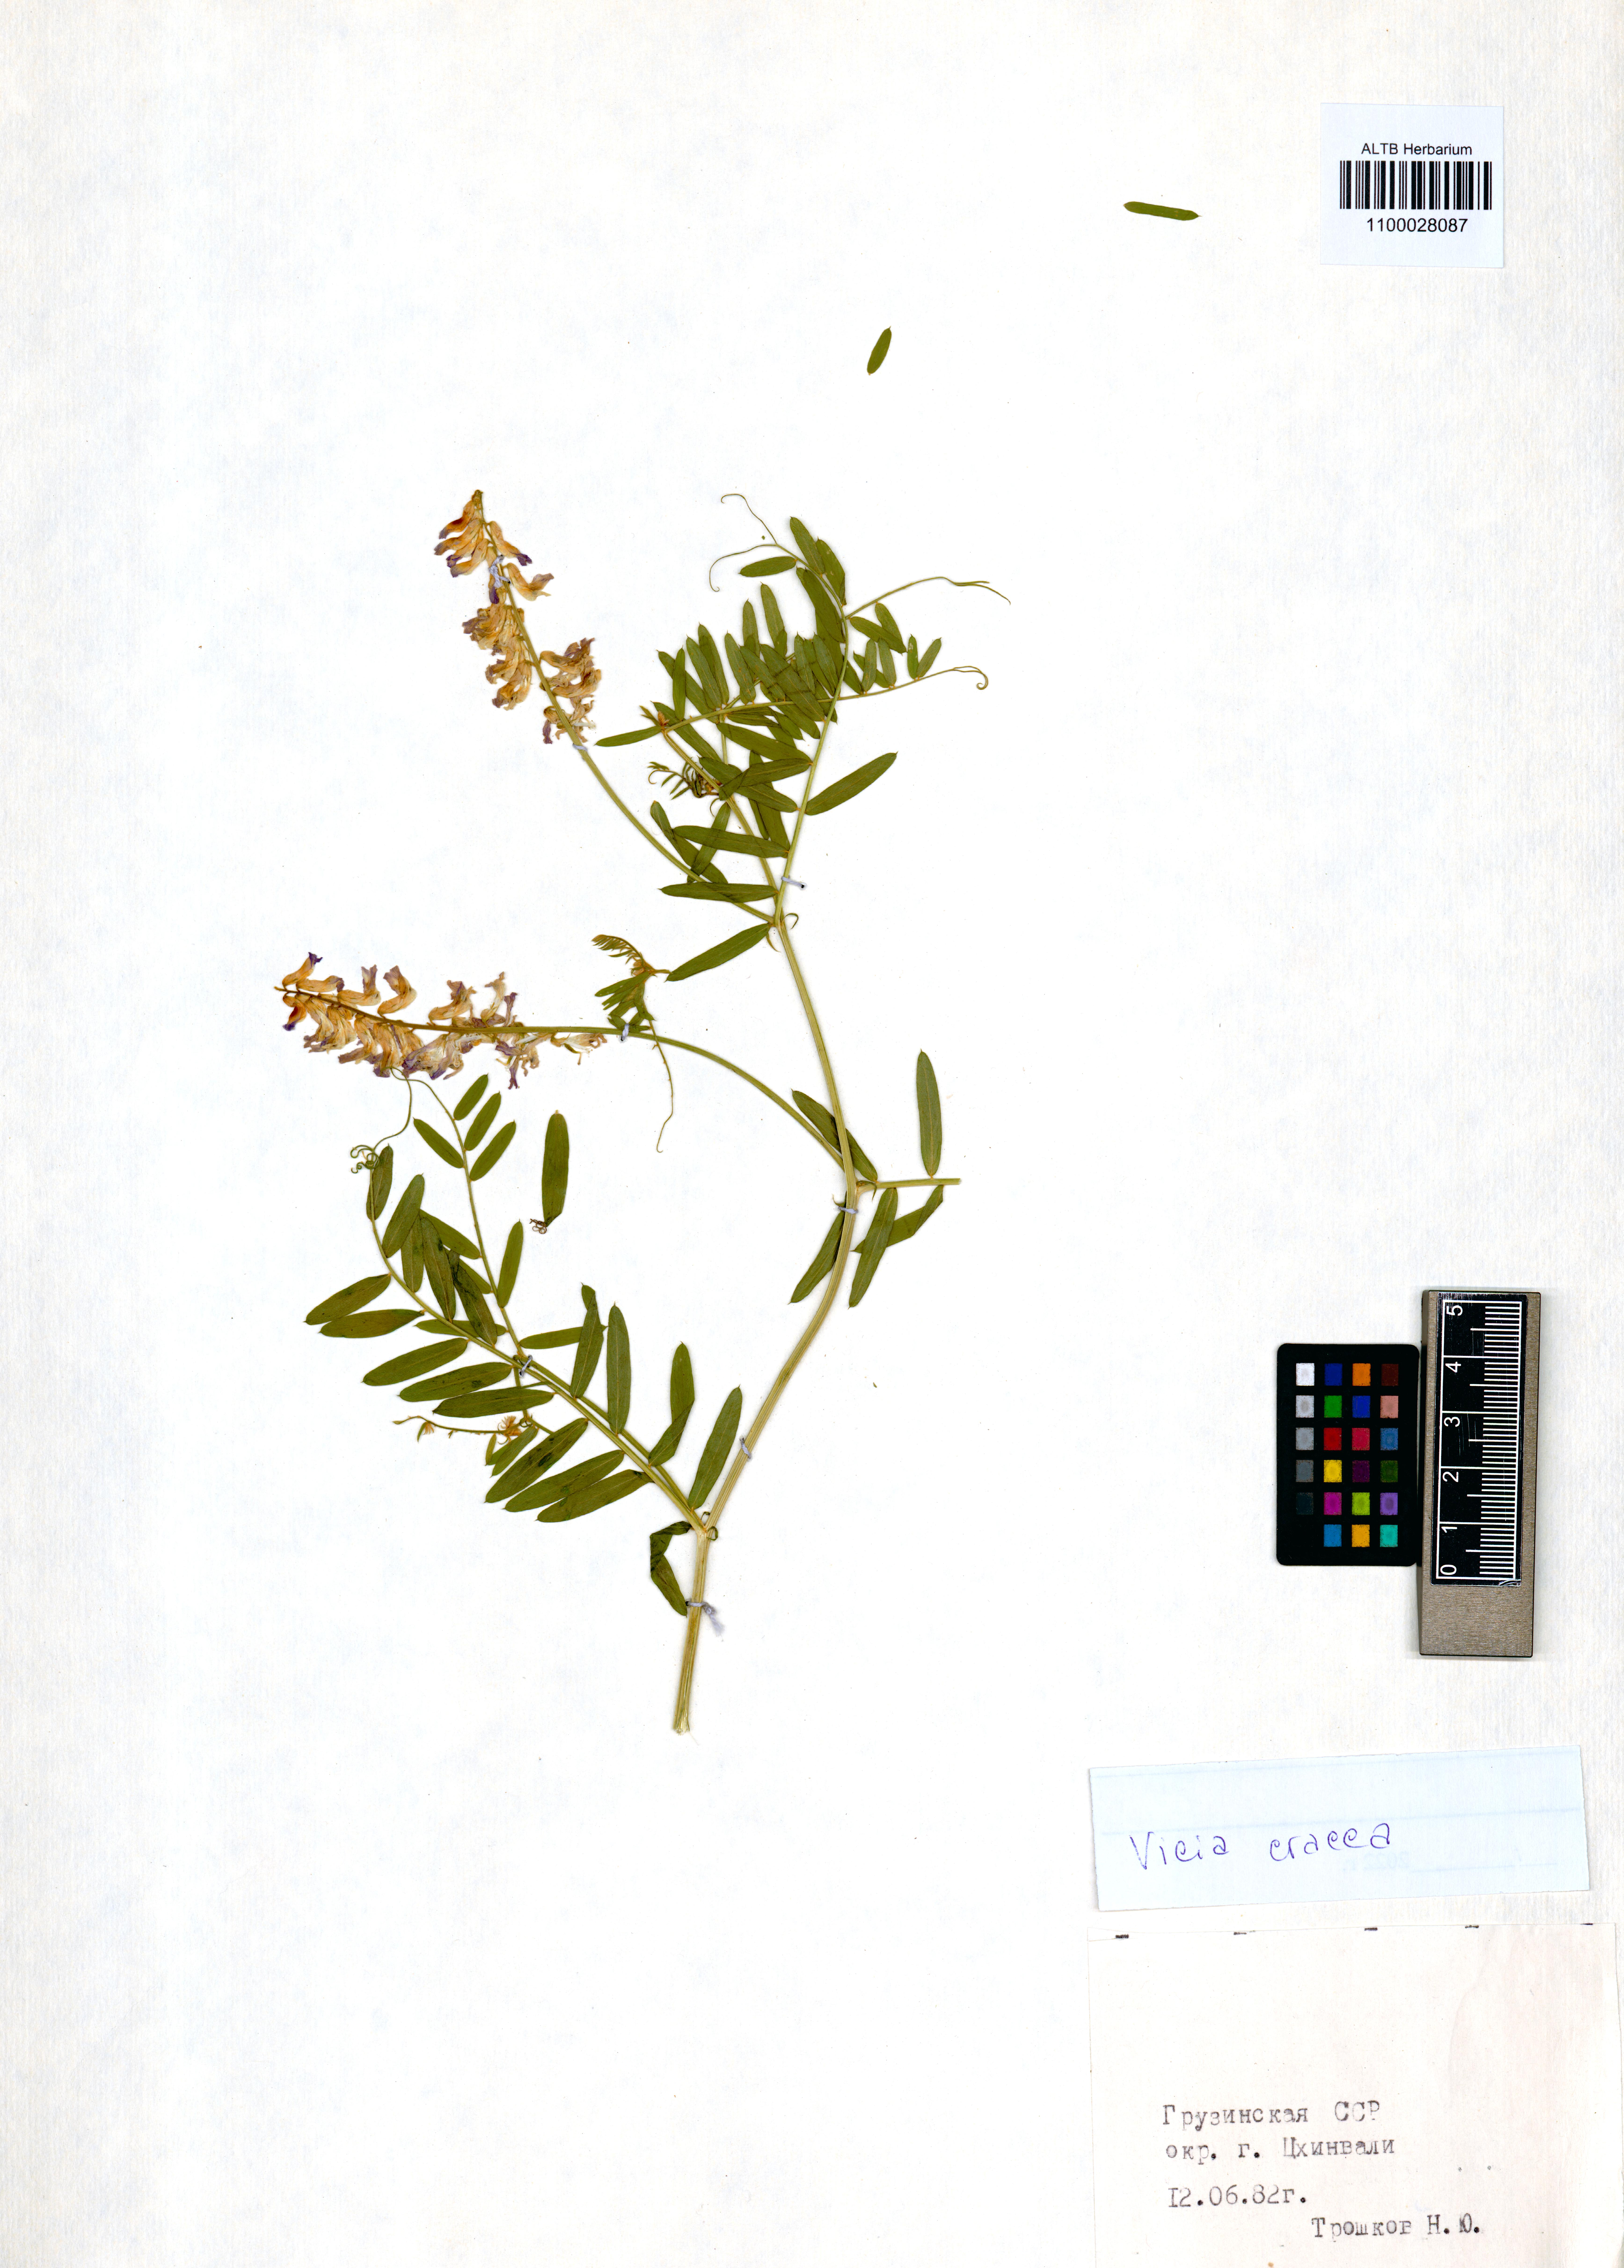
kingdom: Plantae
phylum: Tracheophyta
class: Magnoliopsida
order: Fabales
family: Fabaceae
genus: Vicia
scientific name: Vicia cracca
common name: Bird vetch
